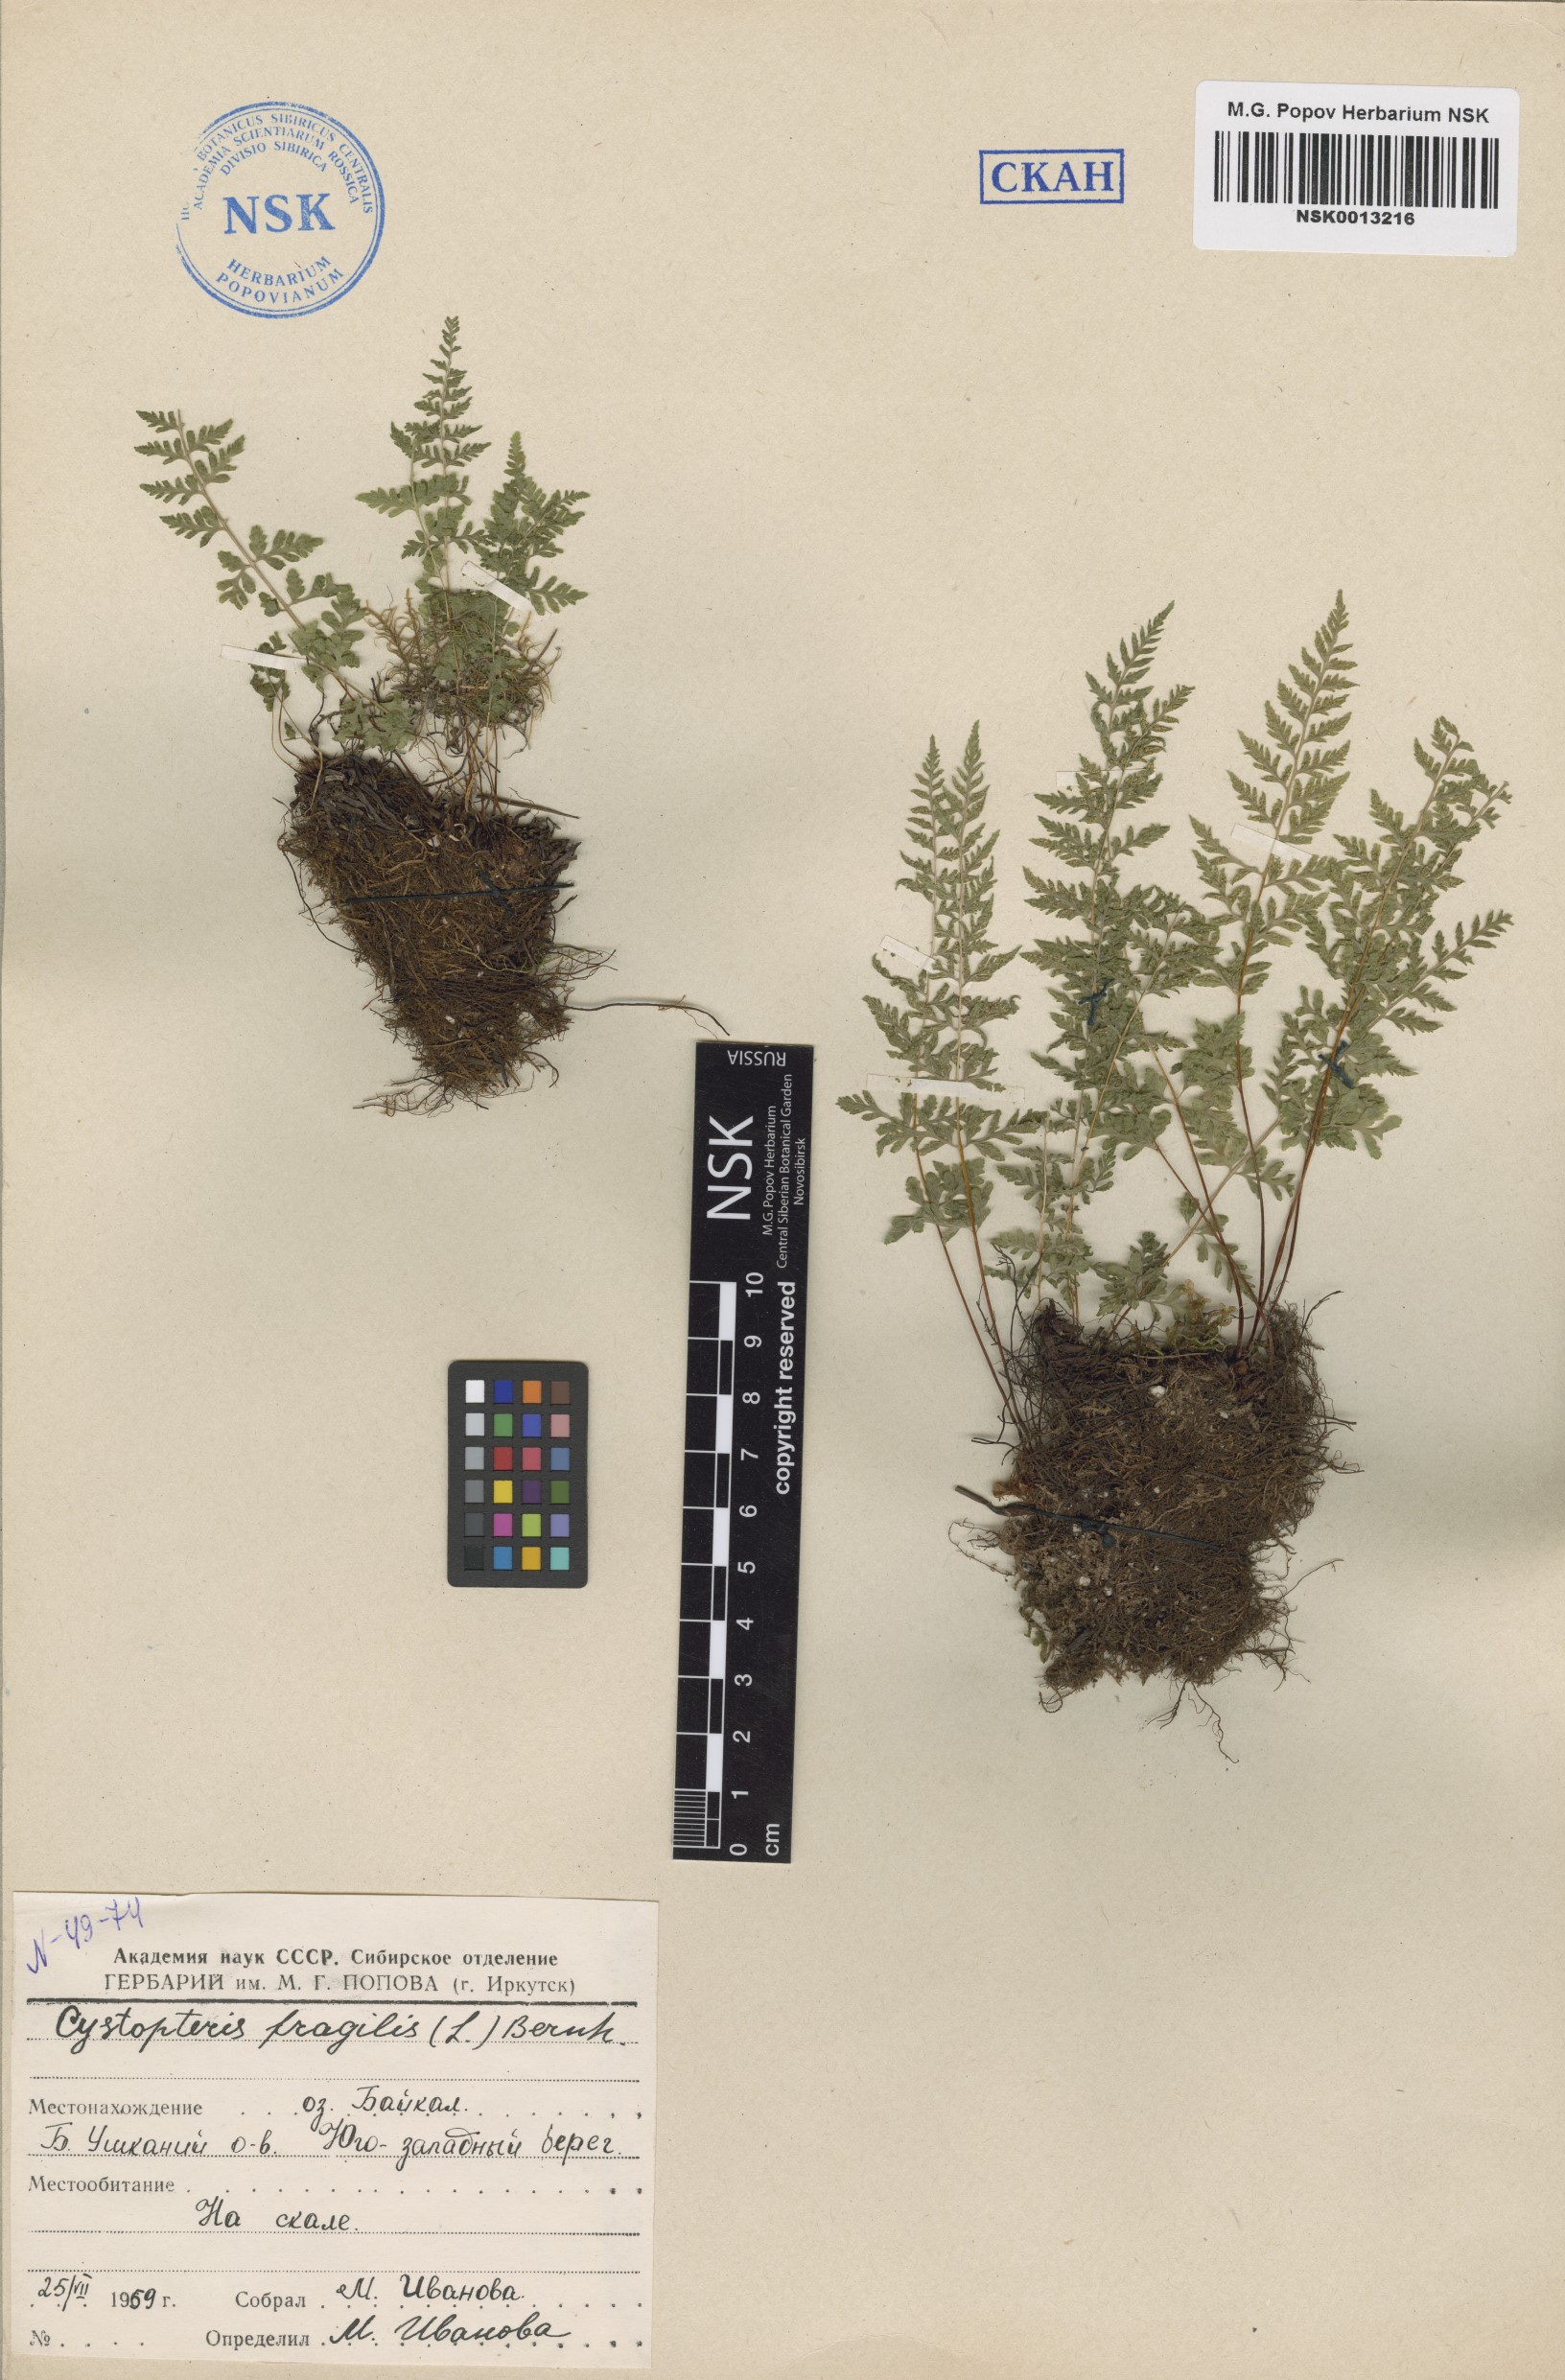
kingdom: Plantae
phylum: Tracheophyta
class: Polypodiopsida
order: Polypodiales
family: Cystopteridaceae
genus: Cystopteris
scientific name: Cystopteris fragilis
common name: Brittle bladder fern
